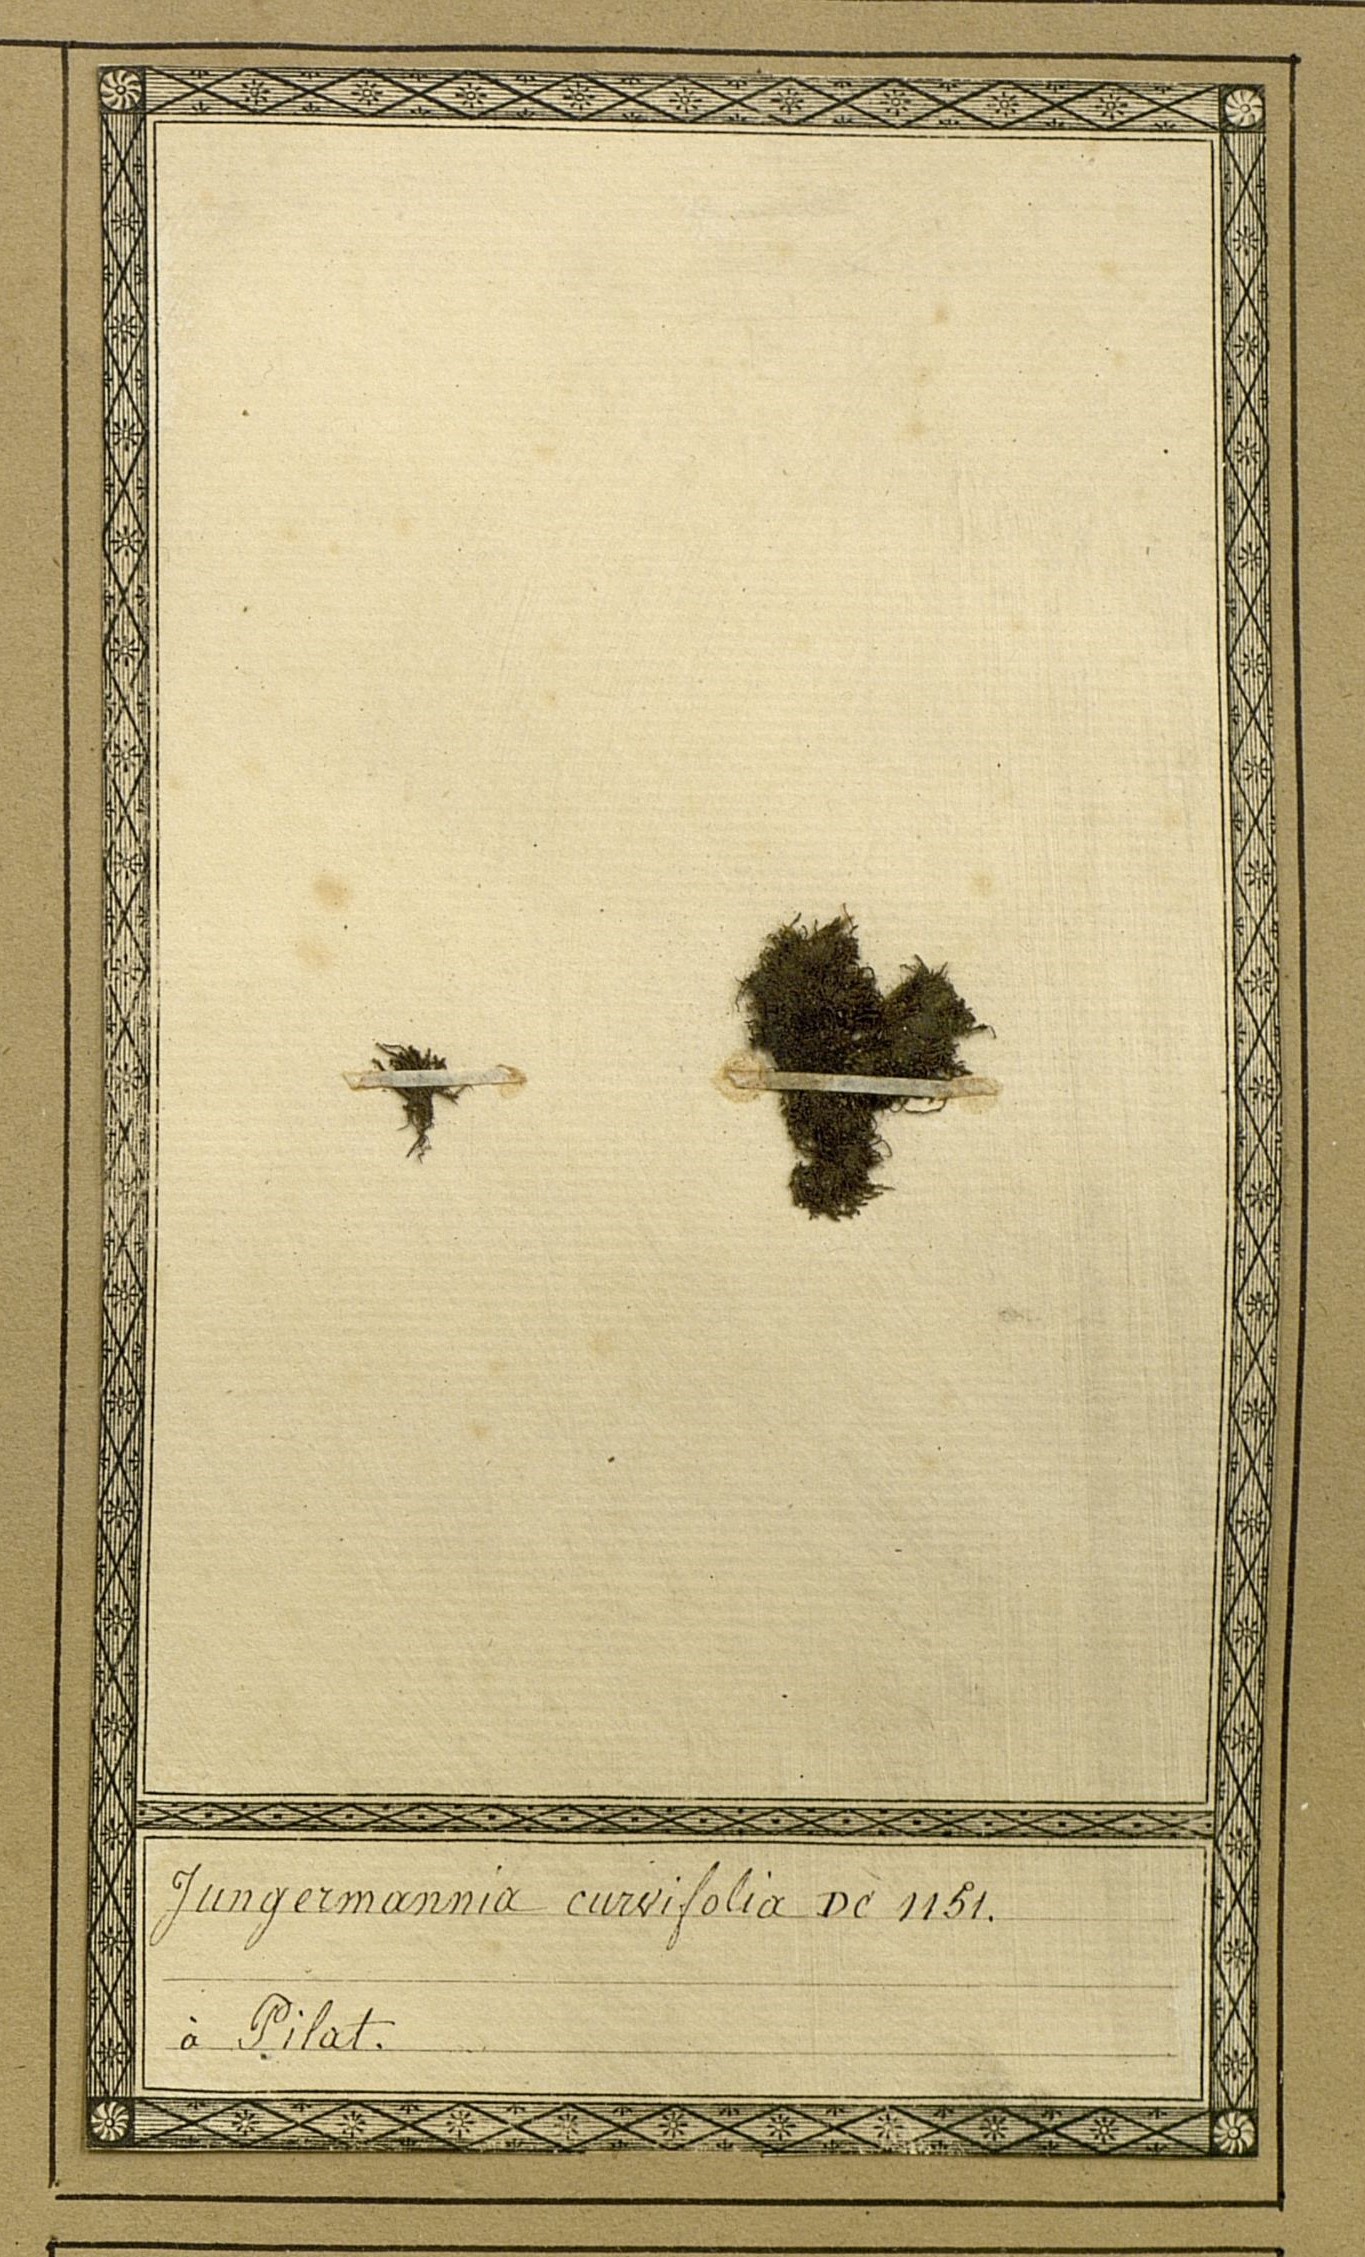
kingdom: Plantae
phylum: Marchantiophyta
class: Jungermanniopsida
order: Jungermanniales
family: Cephaloziaceae
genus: Nowellia
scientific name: Nowellia curvifolia
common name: Wood rustwort
